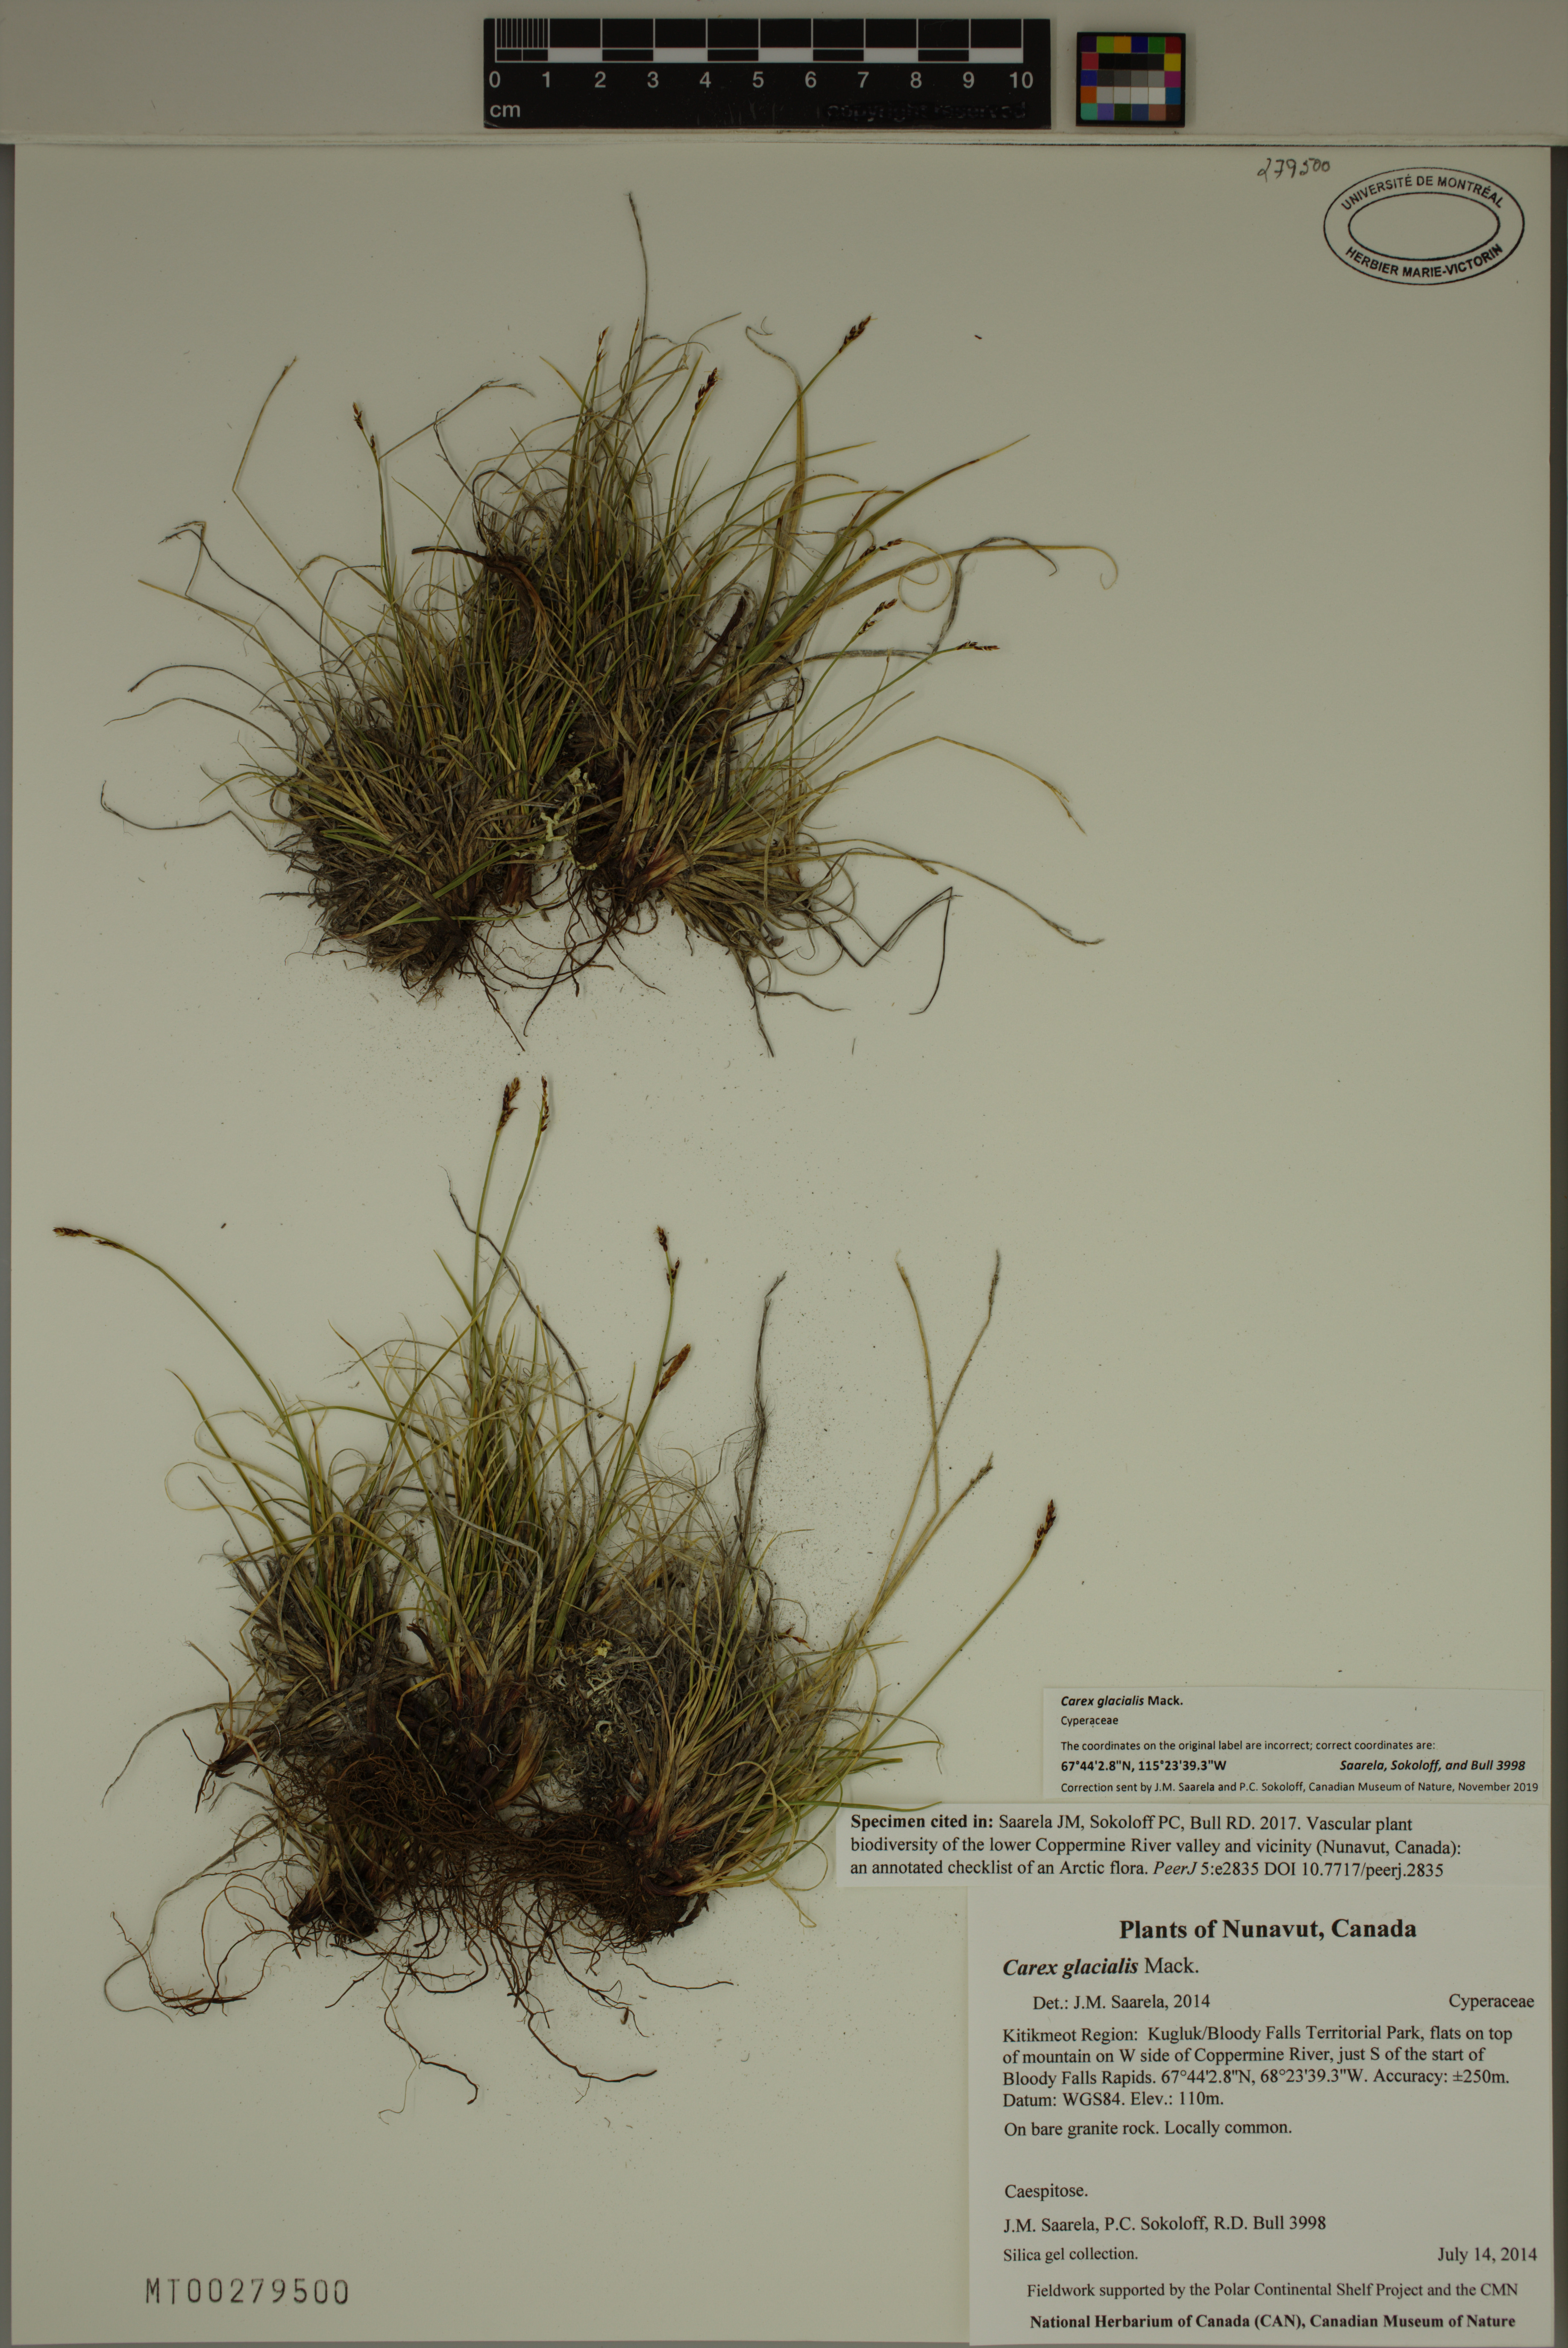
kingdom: Plantae
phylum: Tracheophyta
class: Liliopsida
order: Poales
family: Cyperaceae
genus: Carex
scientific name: Carex glacialis
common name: Newfoundland sedge
